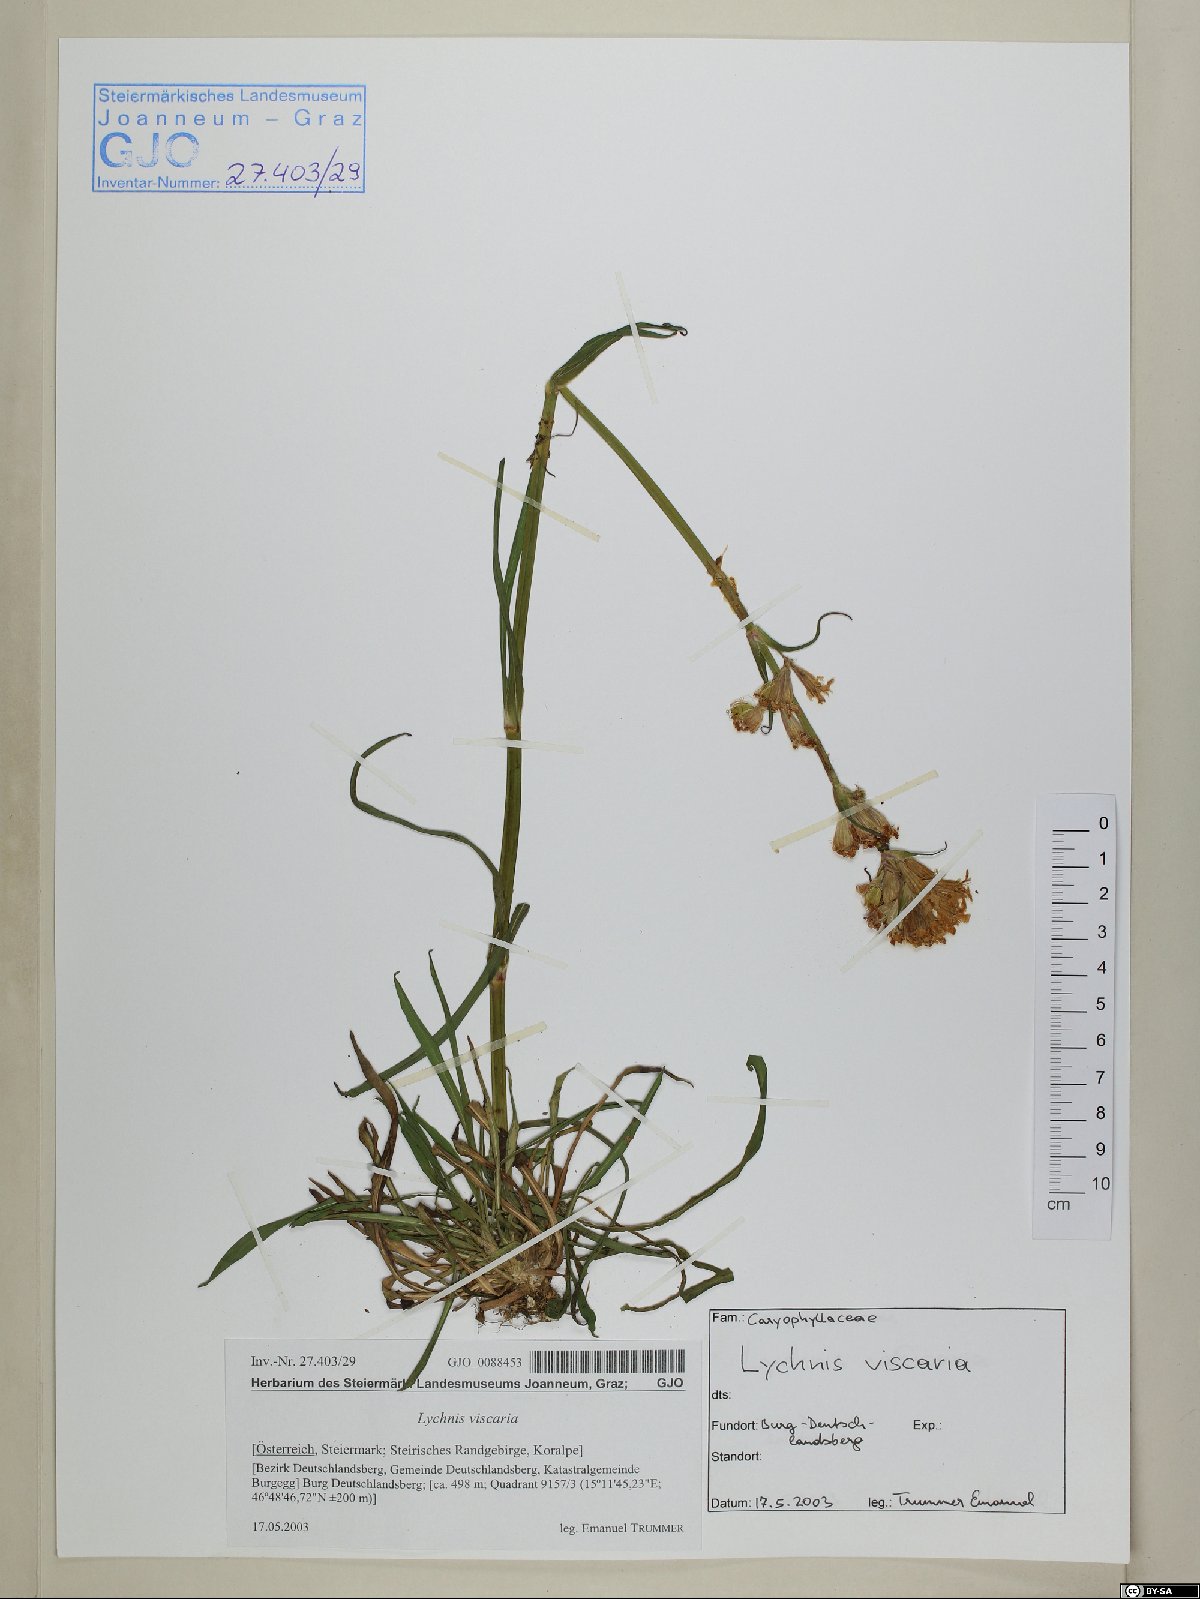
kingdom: Plantae
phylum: Tracheophyta
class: Magnoliopsida
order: Caryophyllales
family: Caryophyllaceae
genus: Viscaria
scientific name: Viscaria vulgaris
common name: Clammy campion
